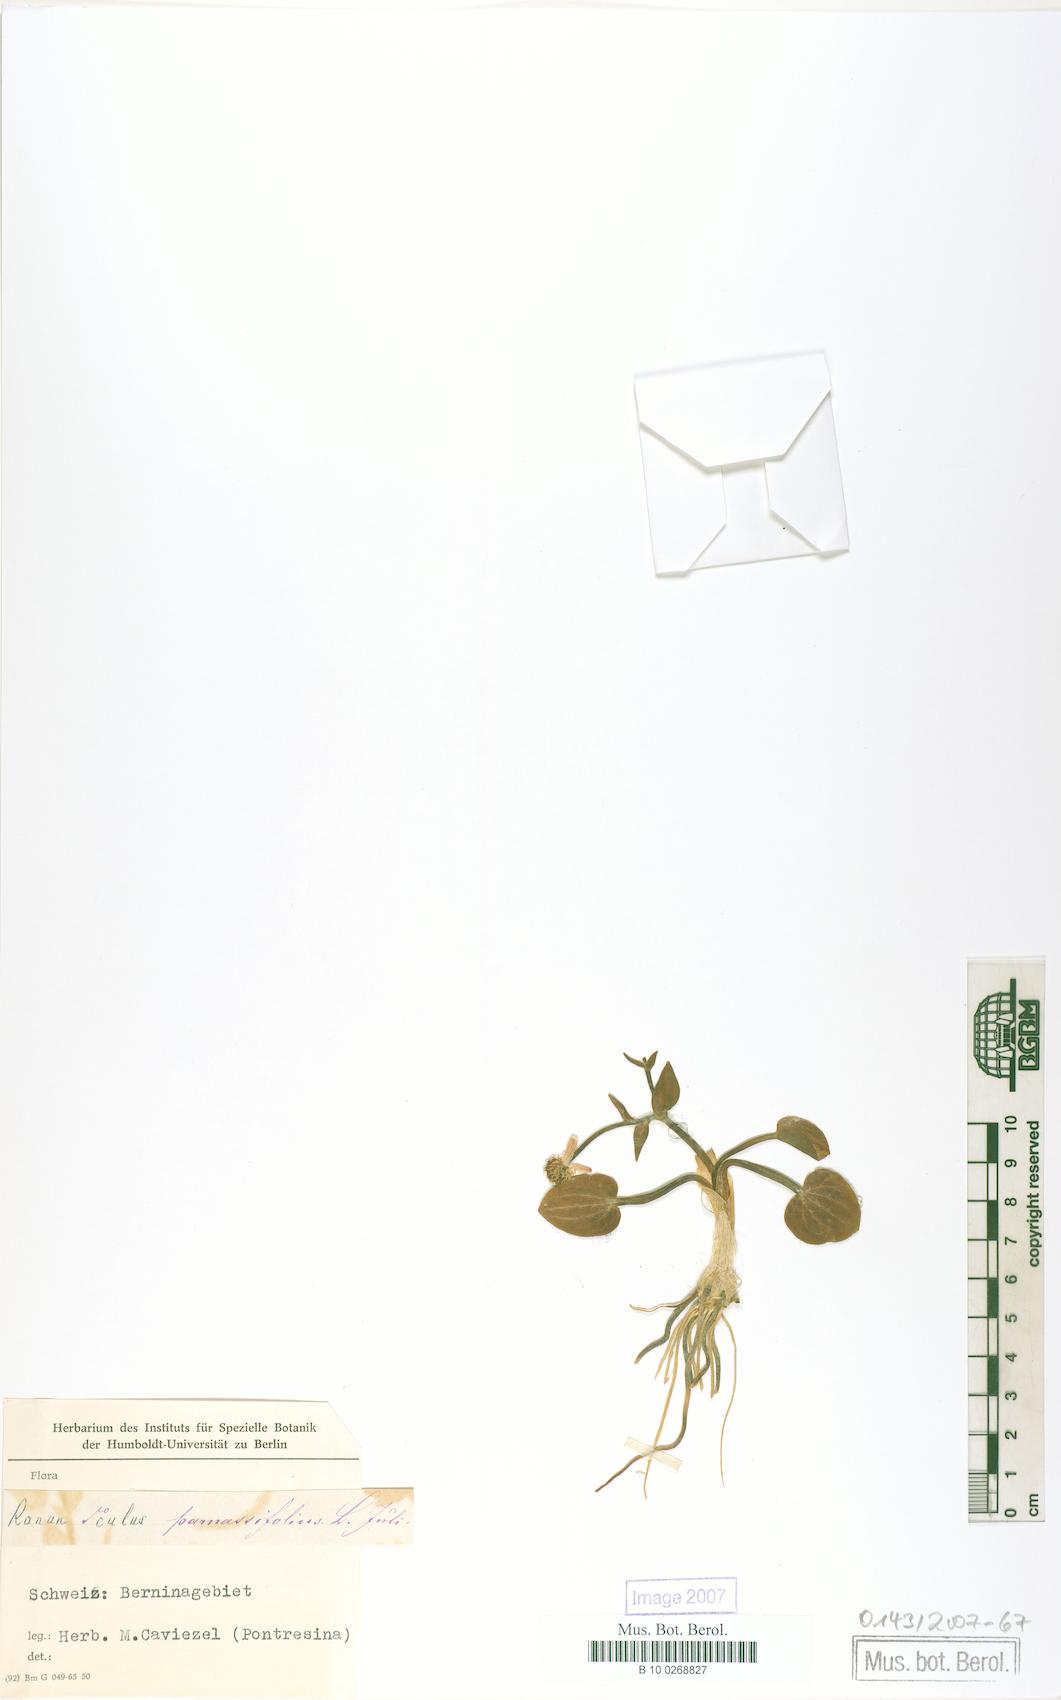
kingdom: Plantae
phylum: Tracheophyta
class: Magnoliopsida
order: Ranunculales
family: Ranunculaceae
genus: Ranunculus
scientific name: Ranunculus parnassiifolius
